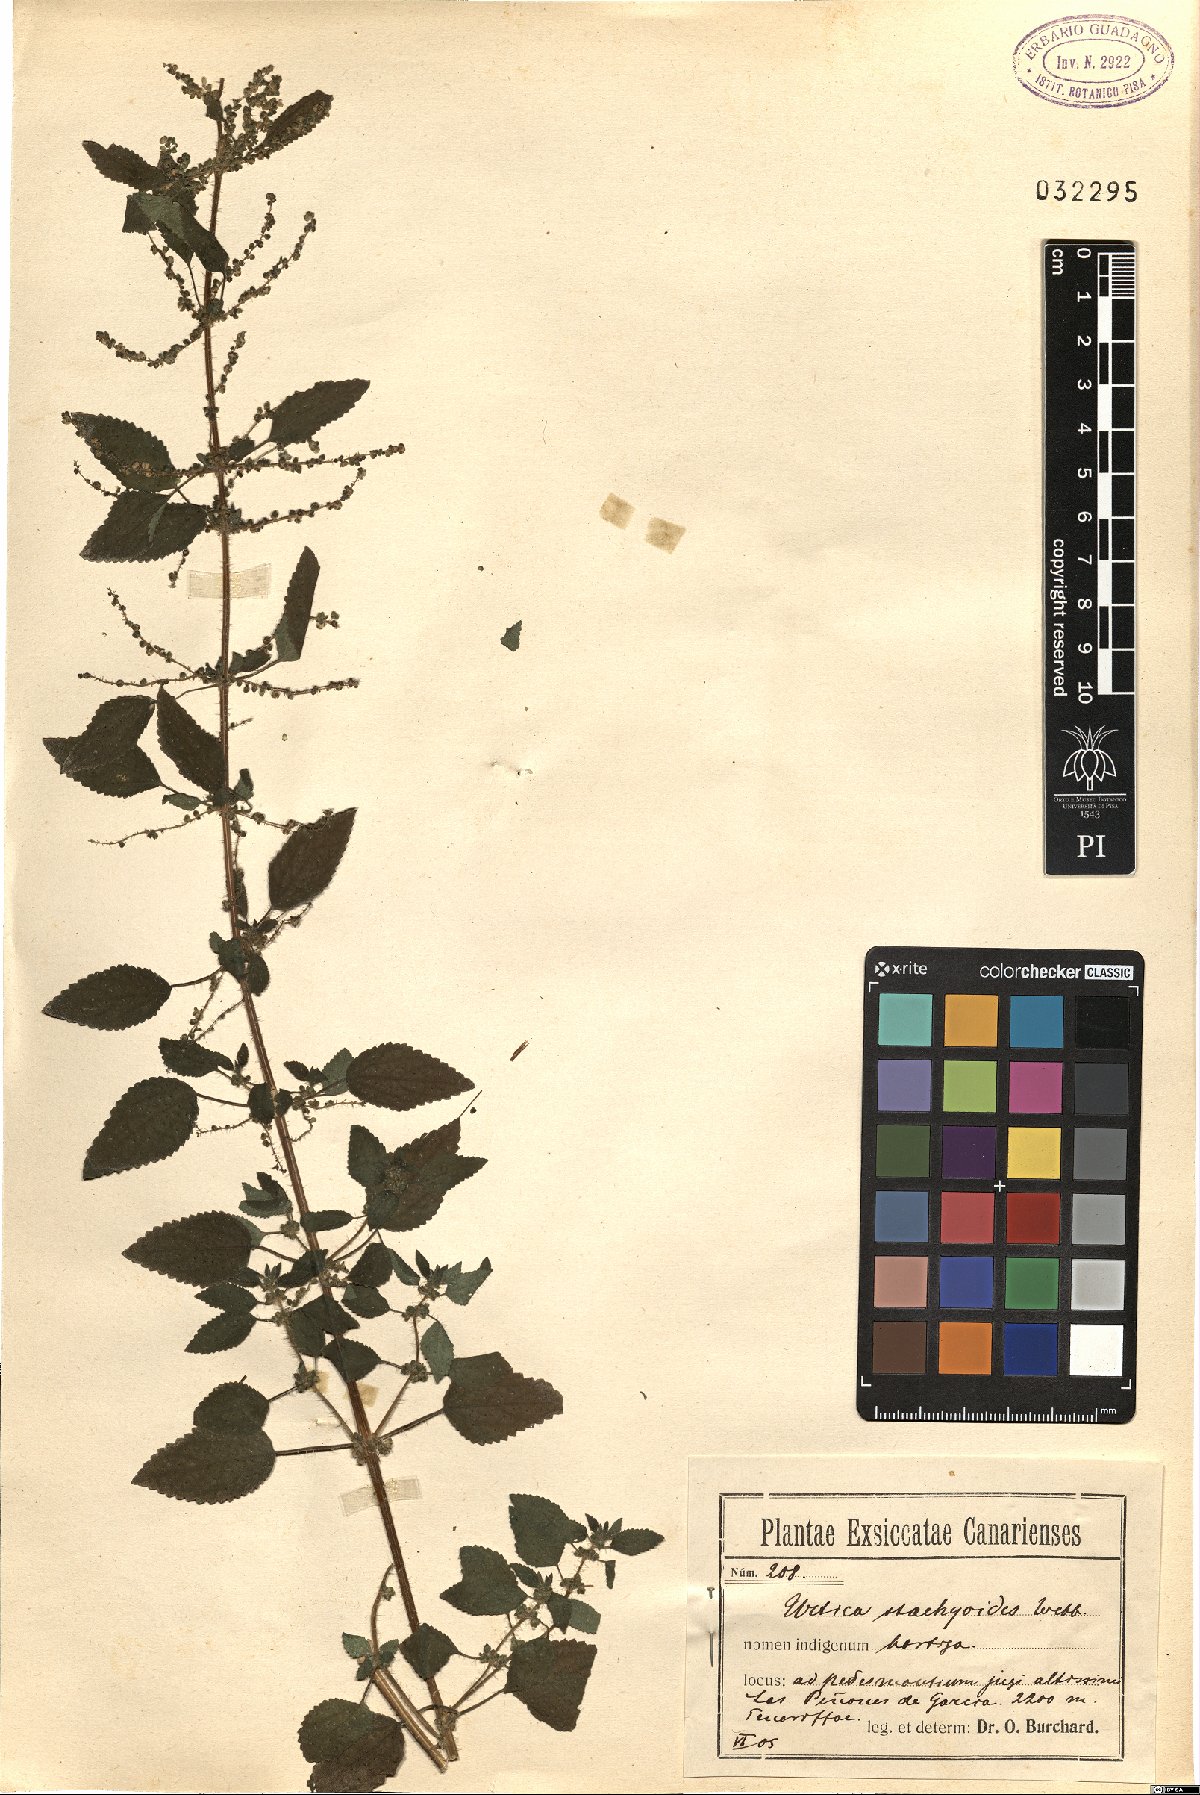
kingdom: Plantae
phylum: Tracheophyta
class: Magnoliopsida
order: Rosales
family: Urticaceae
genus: Urtica
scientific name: Urtica stachyoides
